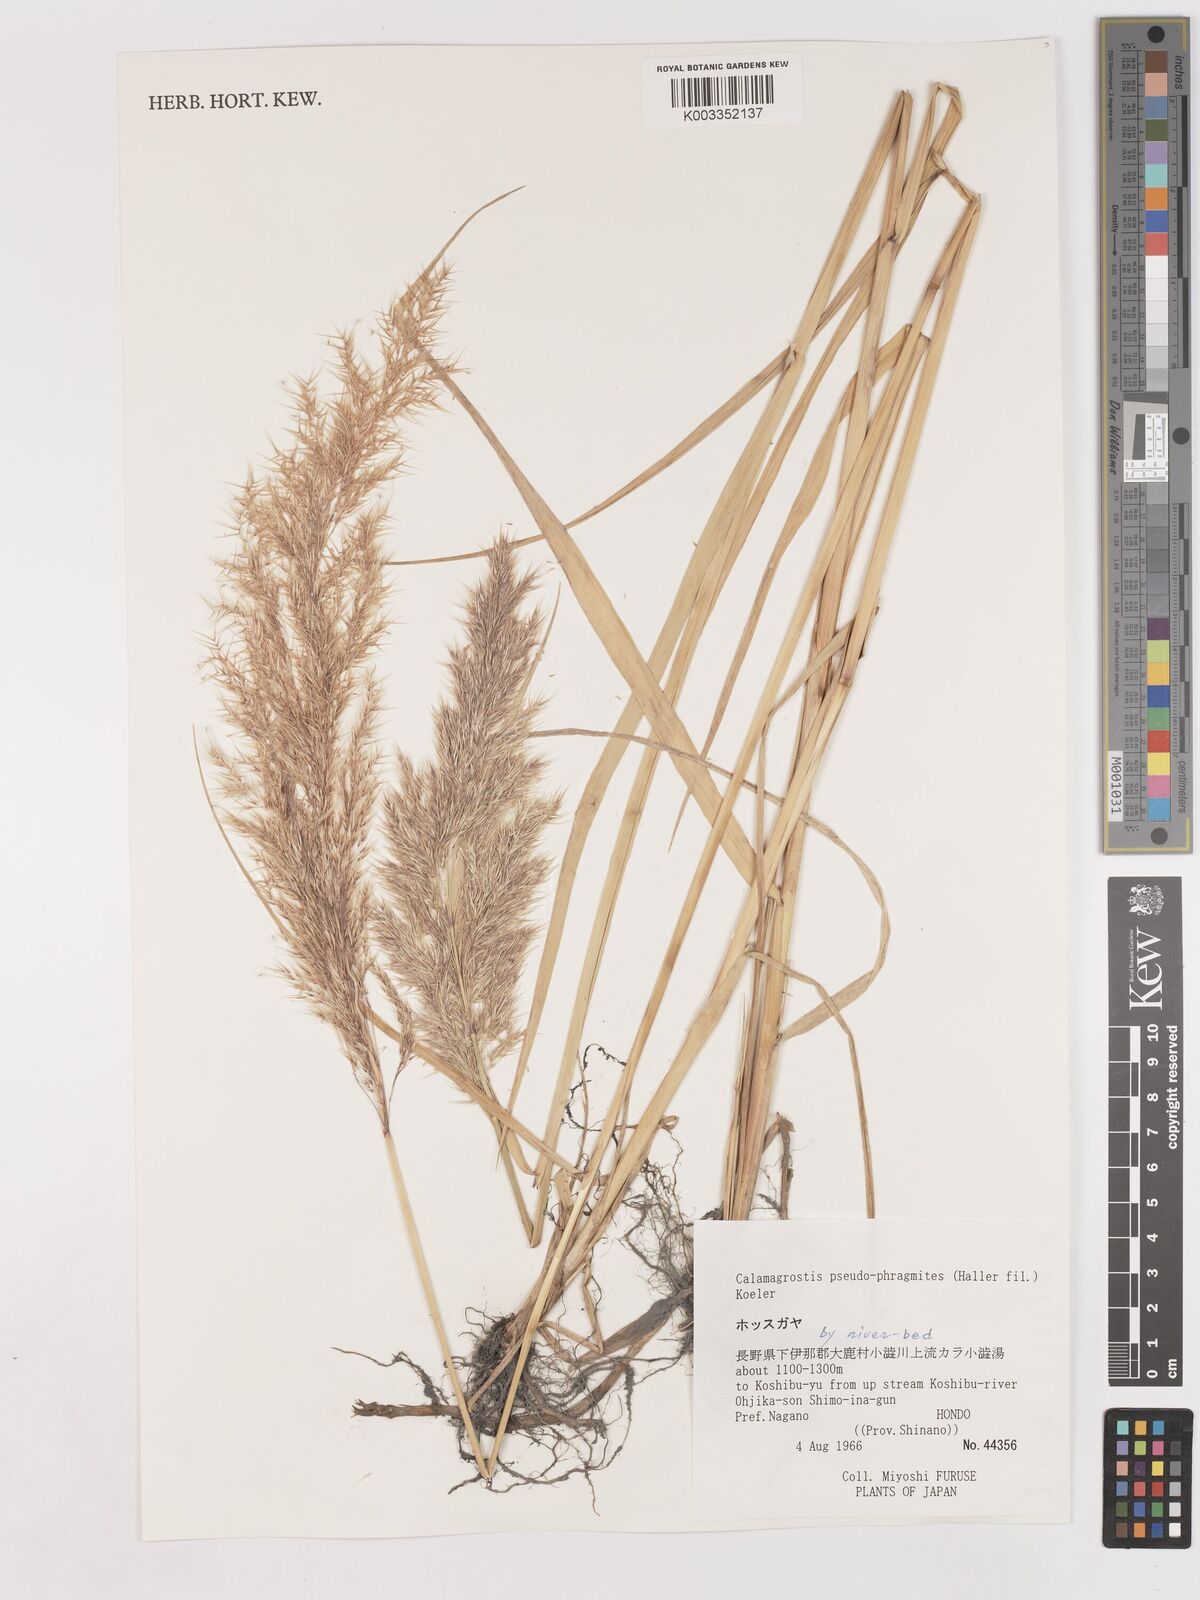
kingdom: Plantae
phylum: Tracheophyta
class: Liliopsida
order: Poales
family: Poaceae
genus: Calamagrostis
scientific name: Calamagrostis pseudophragmites
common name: Coastal small-reed
